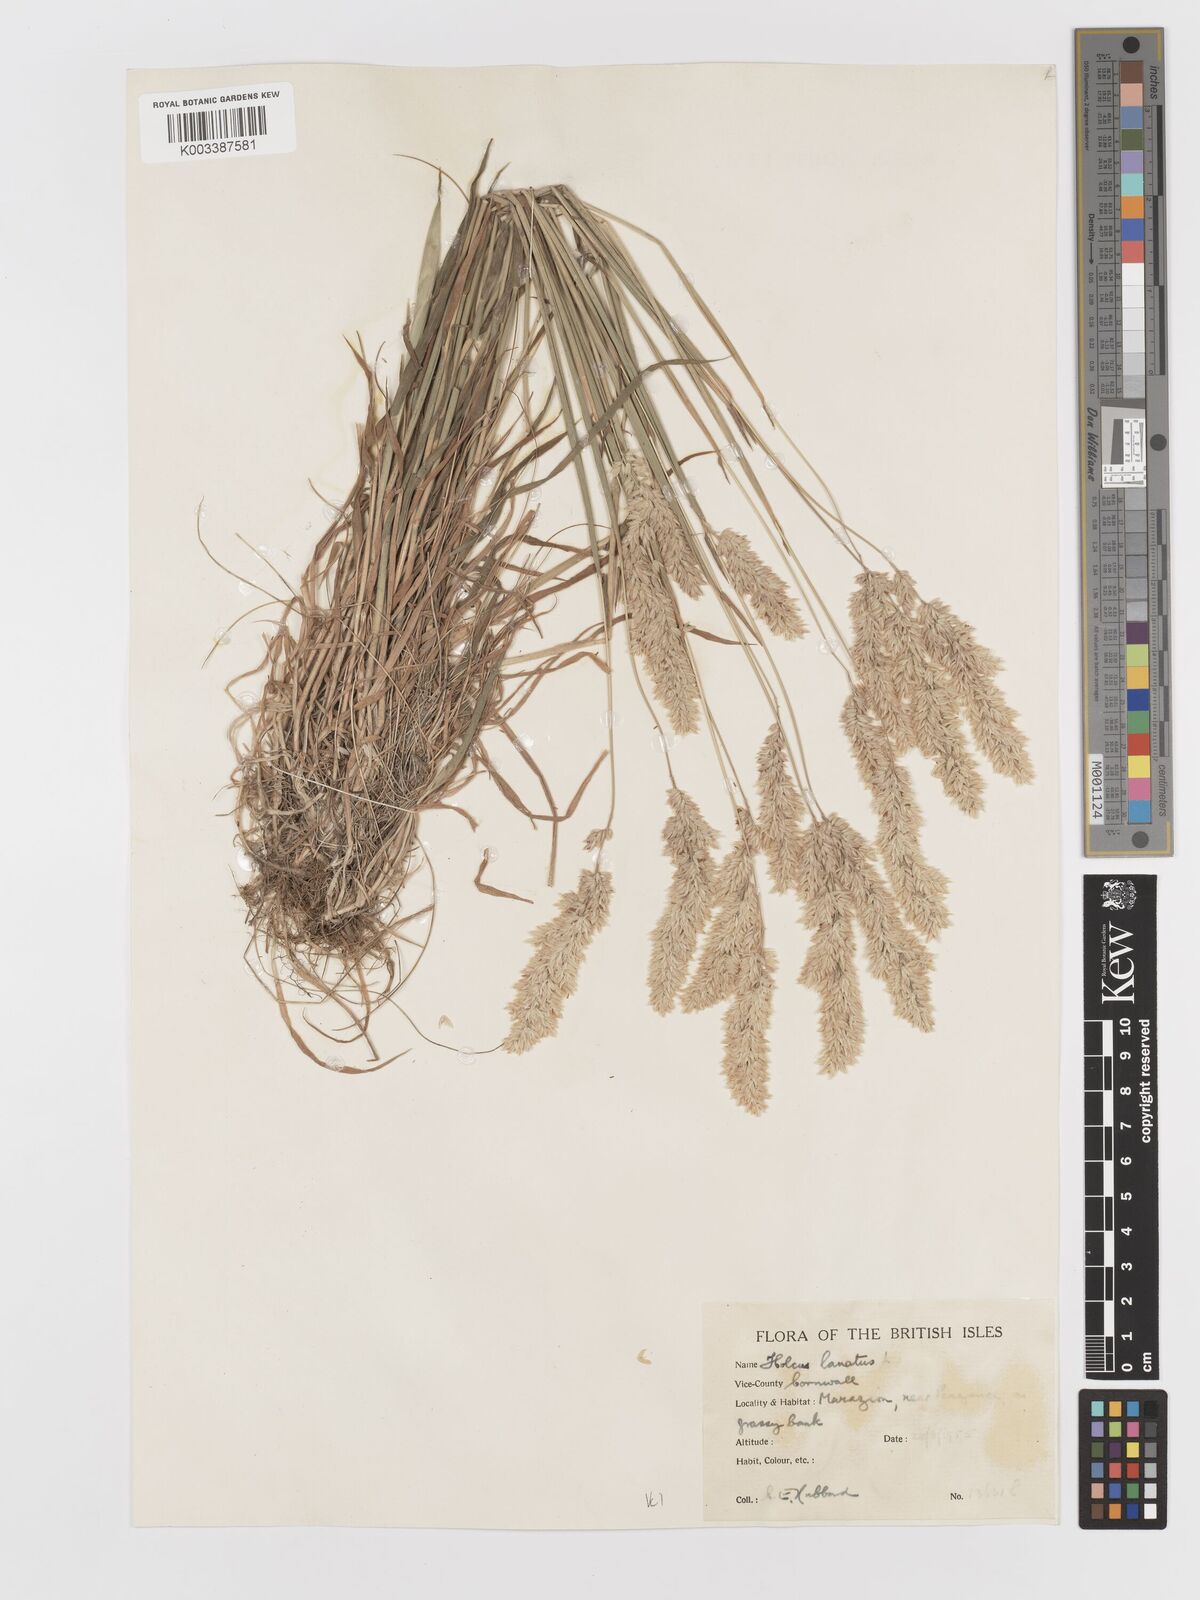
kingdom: Plantae
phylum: Tracheophyta
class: Liliopsida
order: Poales
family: Poaceae
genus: Holcus
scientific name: Holcus lanatus
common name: Yorkshire-fog
